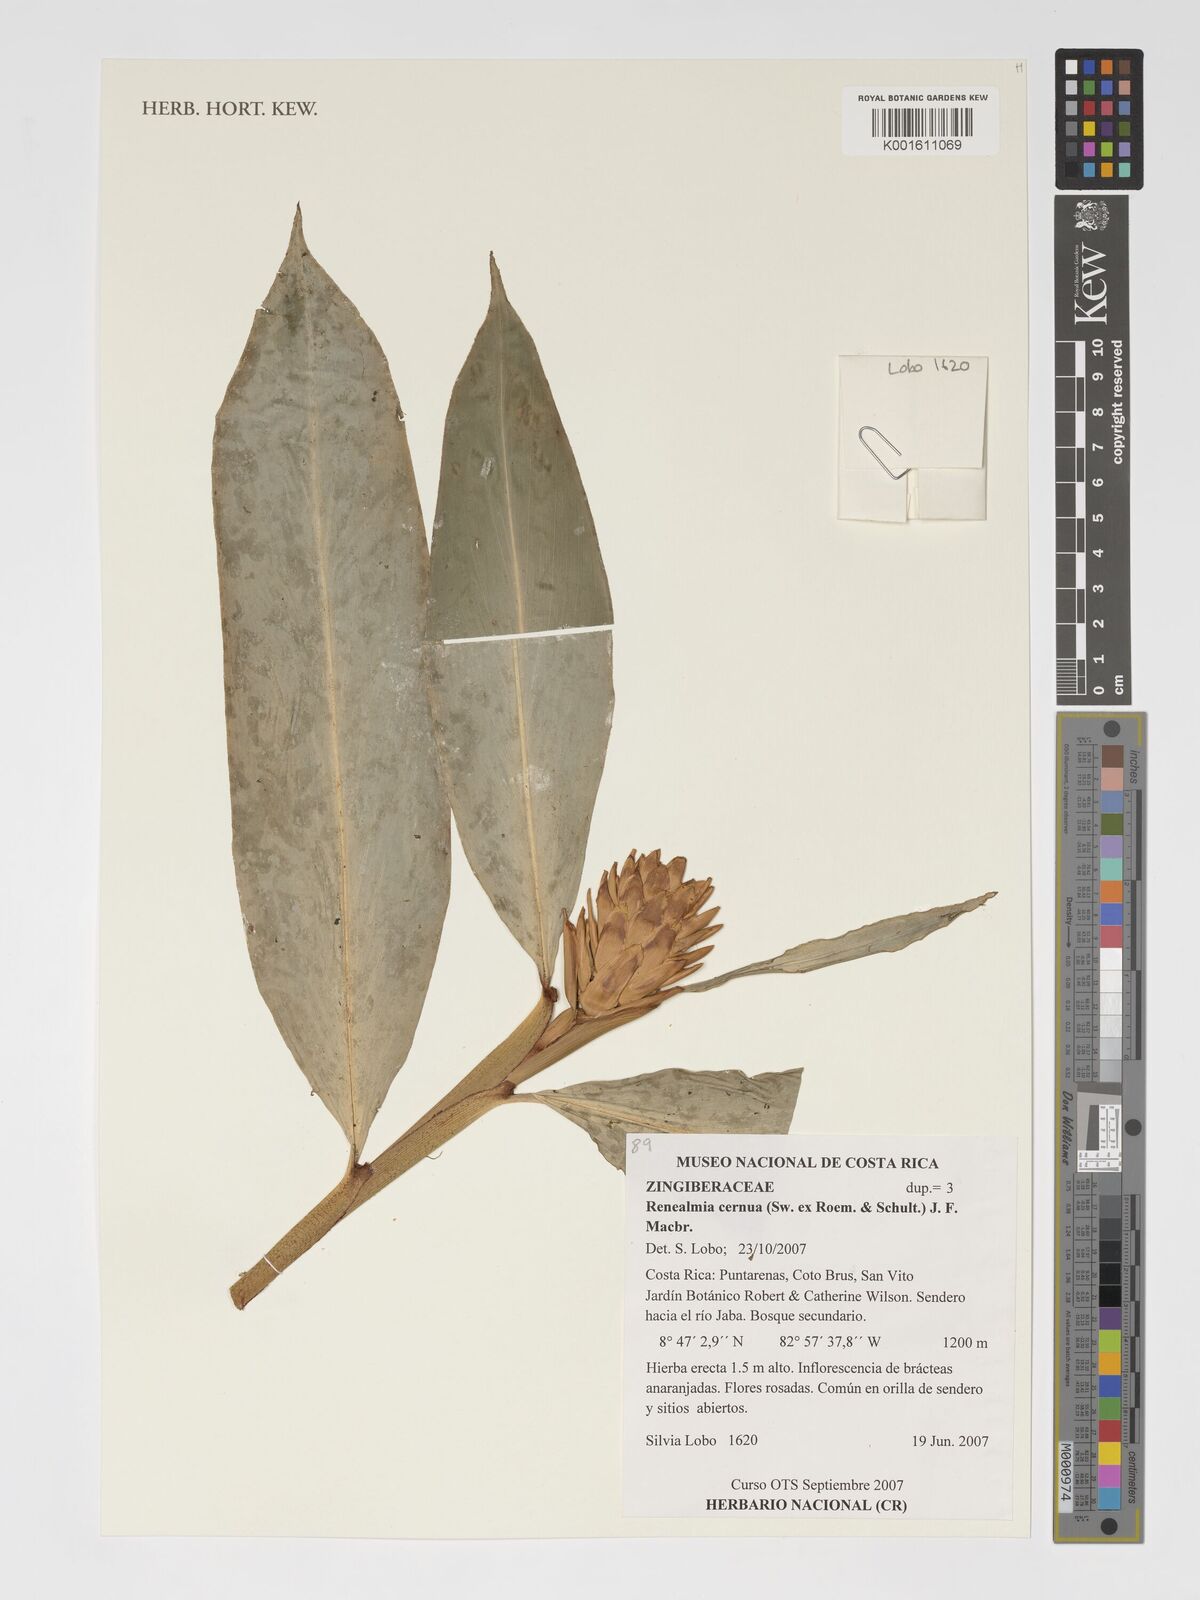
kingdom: Plantae
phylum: Tracheophyta
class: Liliopsida
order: Zingiberales
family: Zingiberaceae
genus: Renealmia
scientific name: Renealmia cernua
